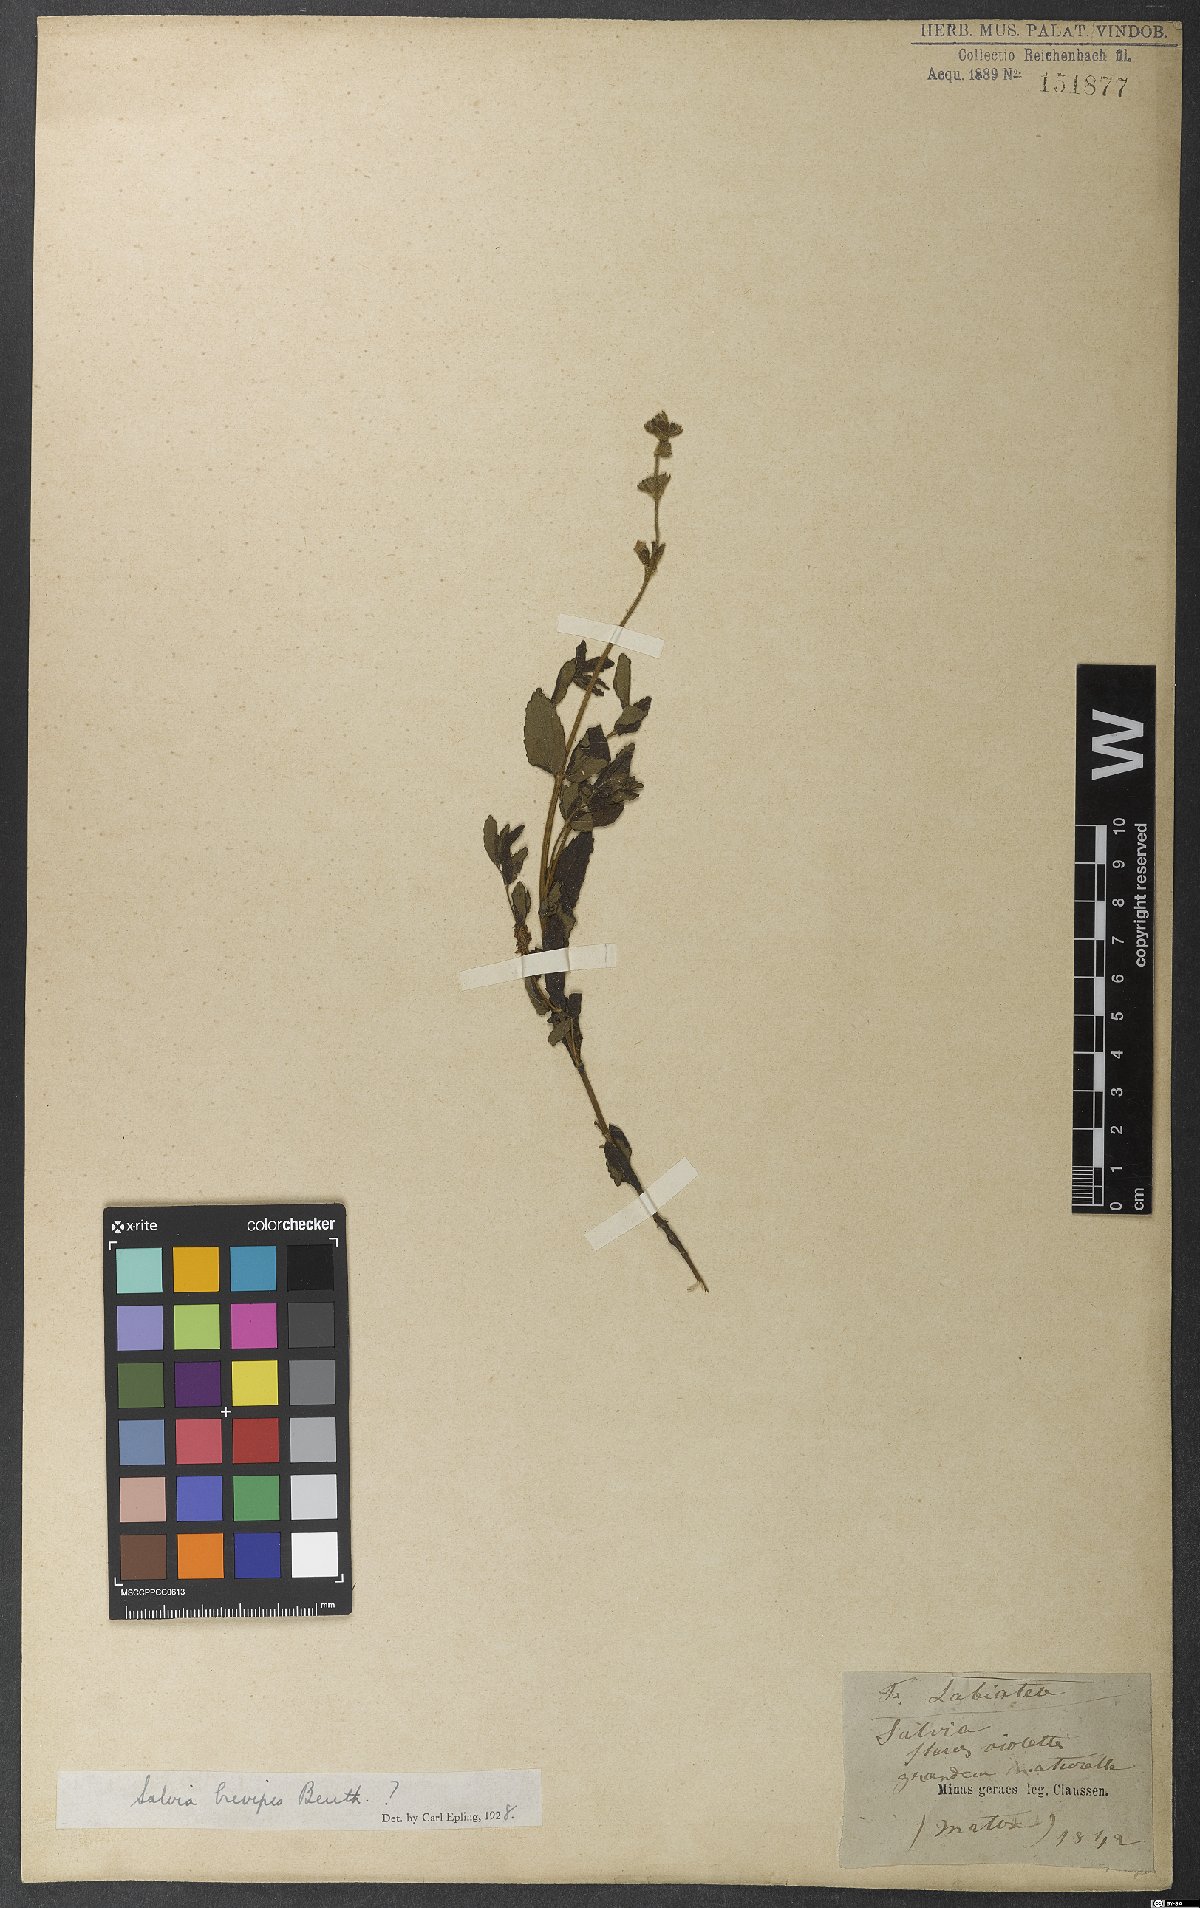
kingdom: Plantae
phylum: Tracheophyta
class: Magnoliopsida
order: Lamiales
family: Lamiaceae
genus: Salvia
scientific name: Salvia brevipes
